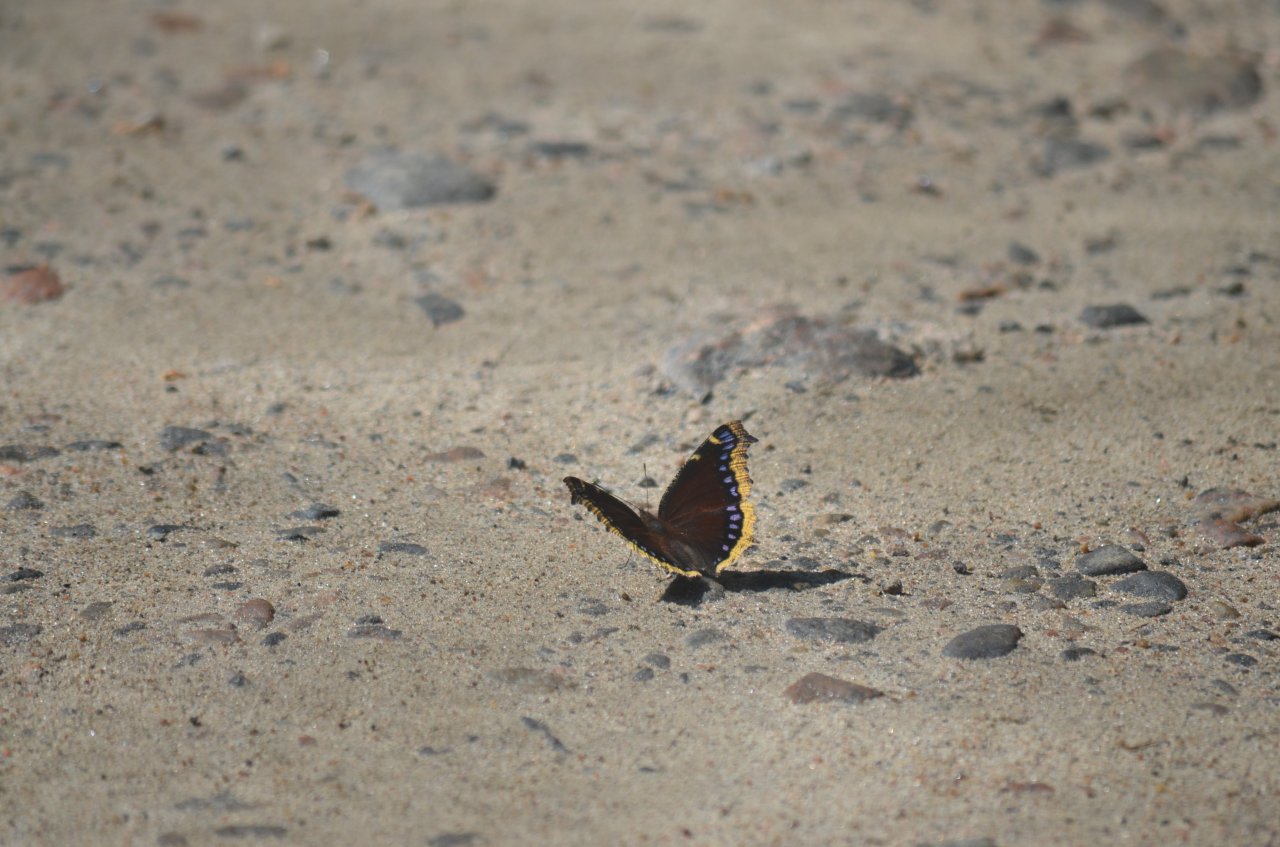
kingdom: Animalia
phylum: Arthropoda
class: Insecta
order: Lepidoptera
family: Nymphalidae
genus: Nymphalis
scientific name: Nymphalis antiopa
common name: Mourning Cloak
